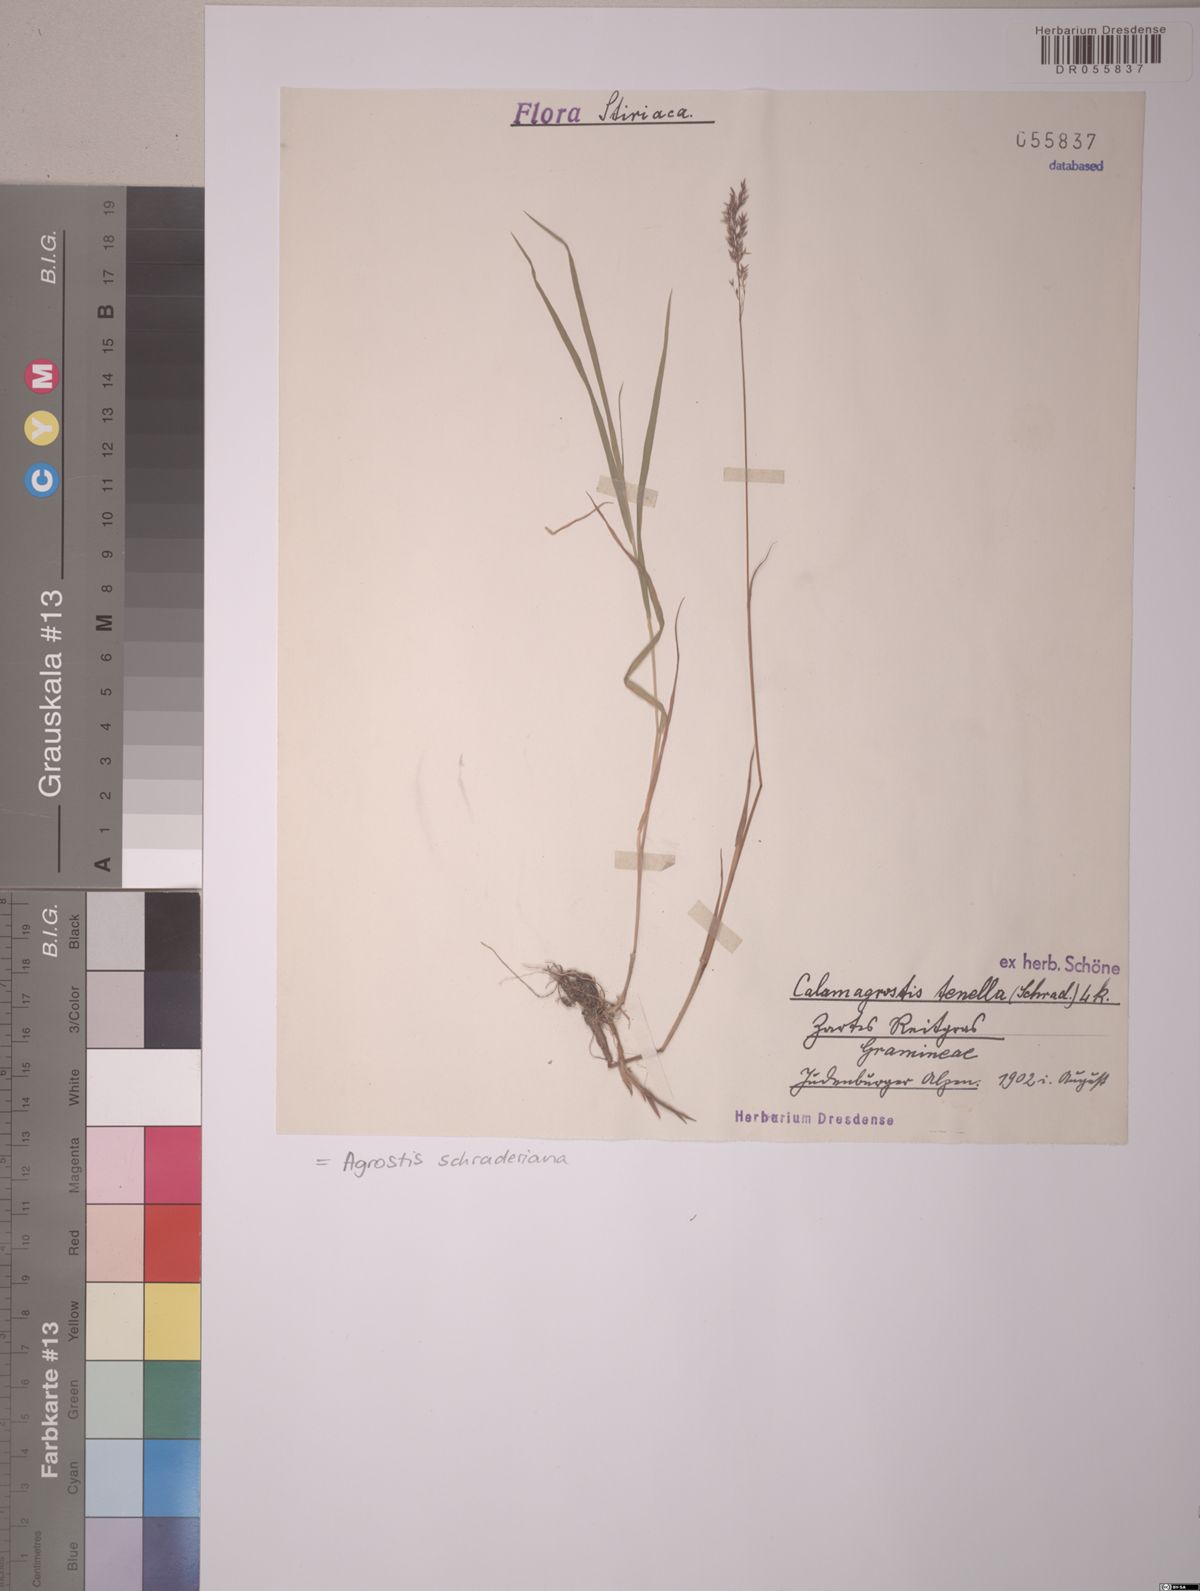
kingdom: Plantae
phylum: Tracheophyta
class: Liliopsida
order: Poales
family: Poaceae
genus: Agrostis
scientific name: Agrostis schraderiana
